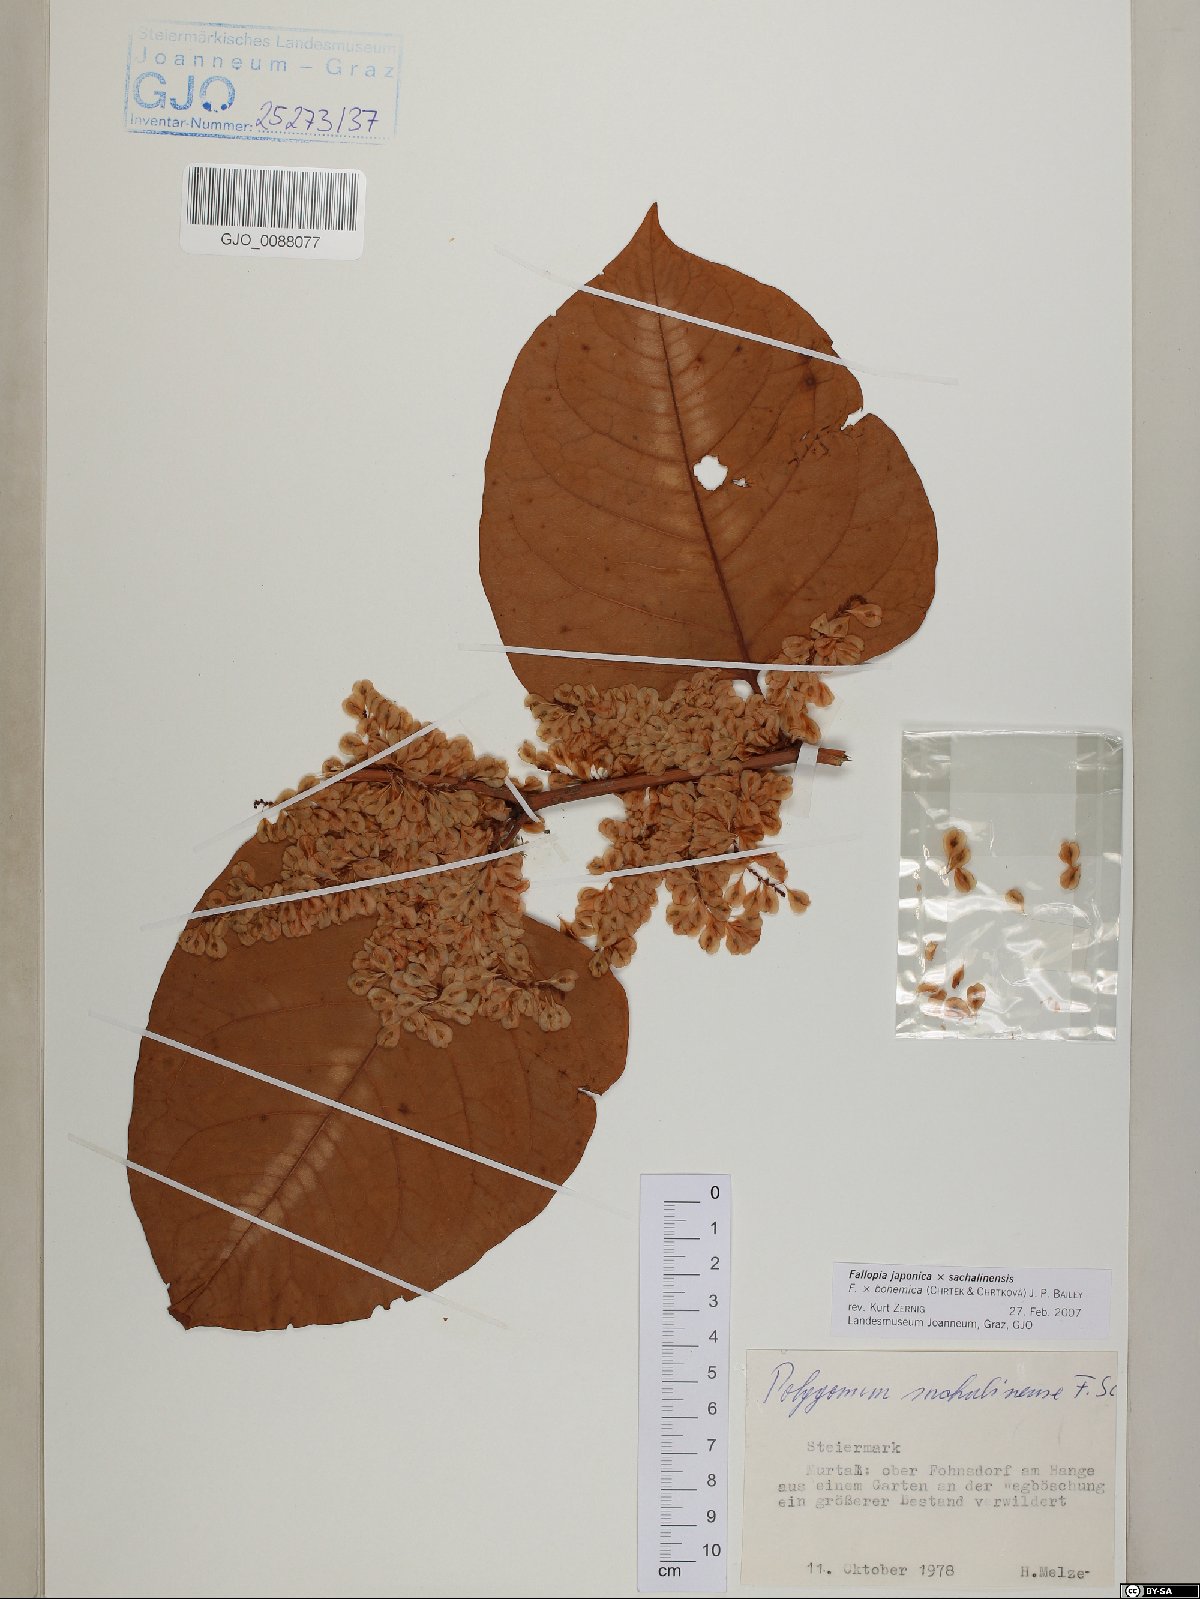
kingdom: Plantae
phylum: Tracheophyta
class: Magnoliopsida
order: Caryophyllales
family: Polygonaceae
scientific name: Polygonaceae
